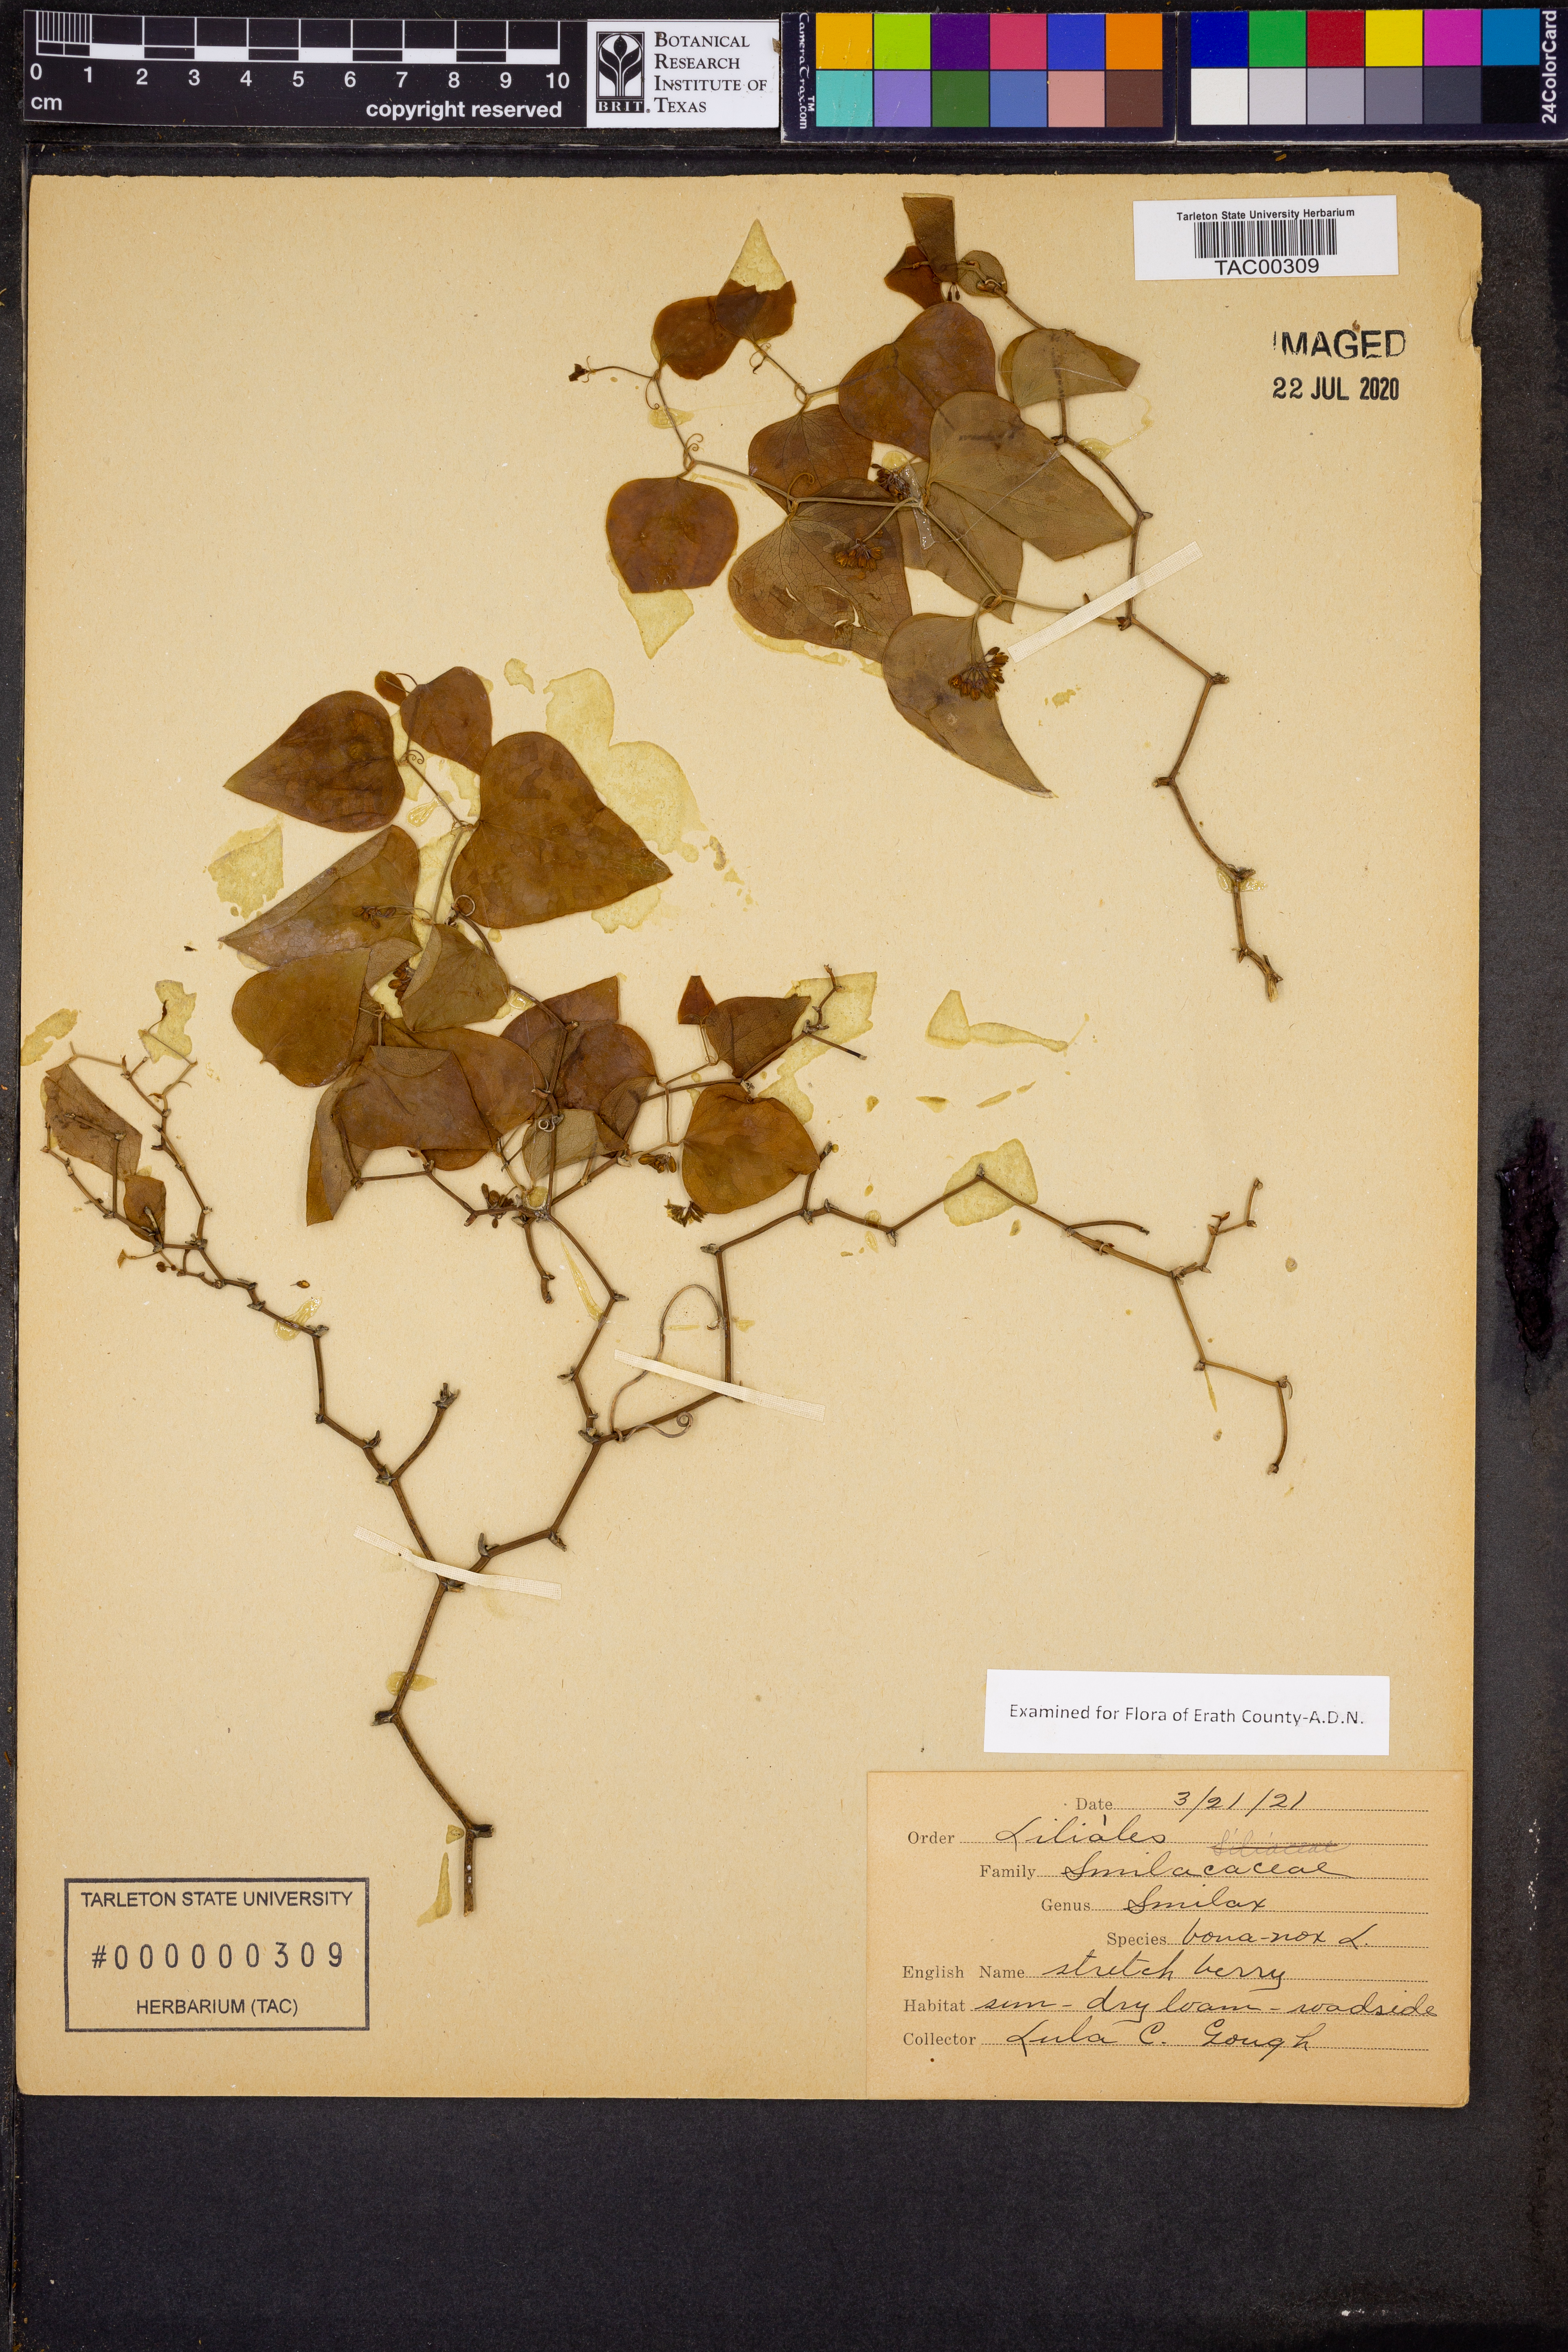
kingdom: Plantae
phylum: Tracheophyta
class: Liliopsida
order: Liliales
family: Smilacaceae
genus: Smilax
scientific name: Smilax bona-nox
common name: Catbrier
